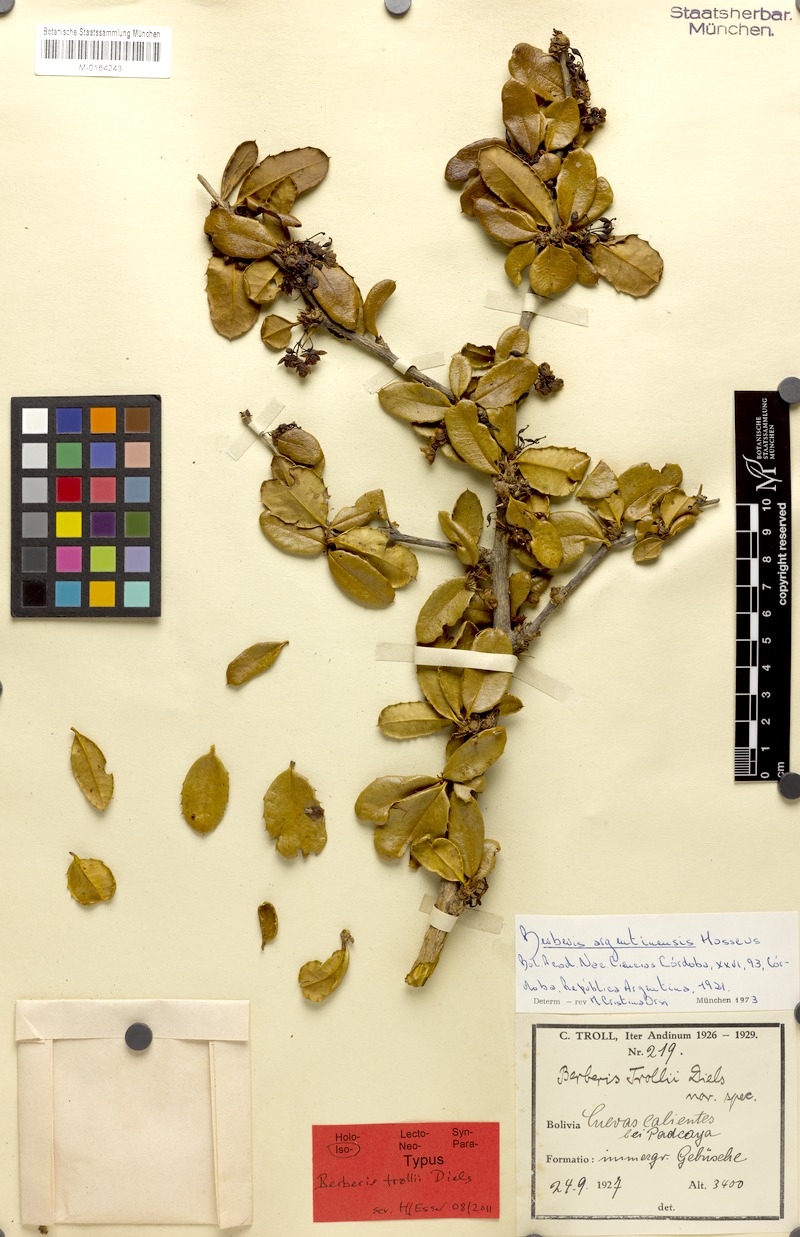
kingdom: Plantae
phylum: Tracheophyta
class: Magnoliopsida
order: Ranunculales
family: Berberidaceae
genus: Berberis
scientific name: Berberis argentinensis
